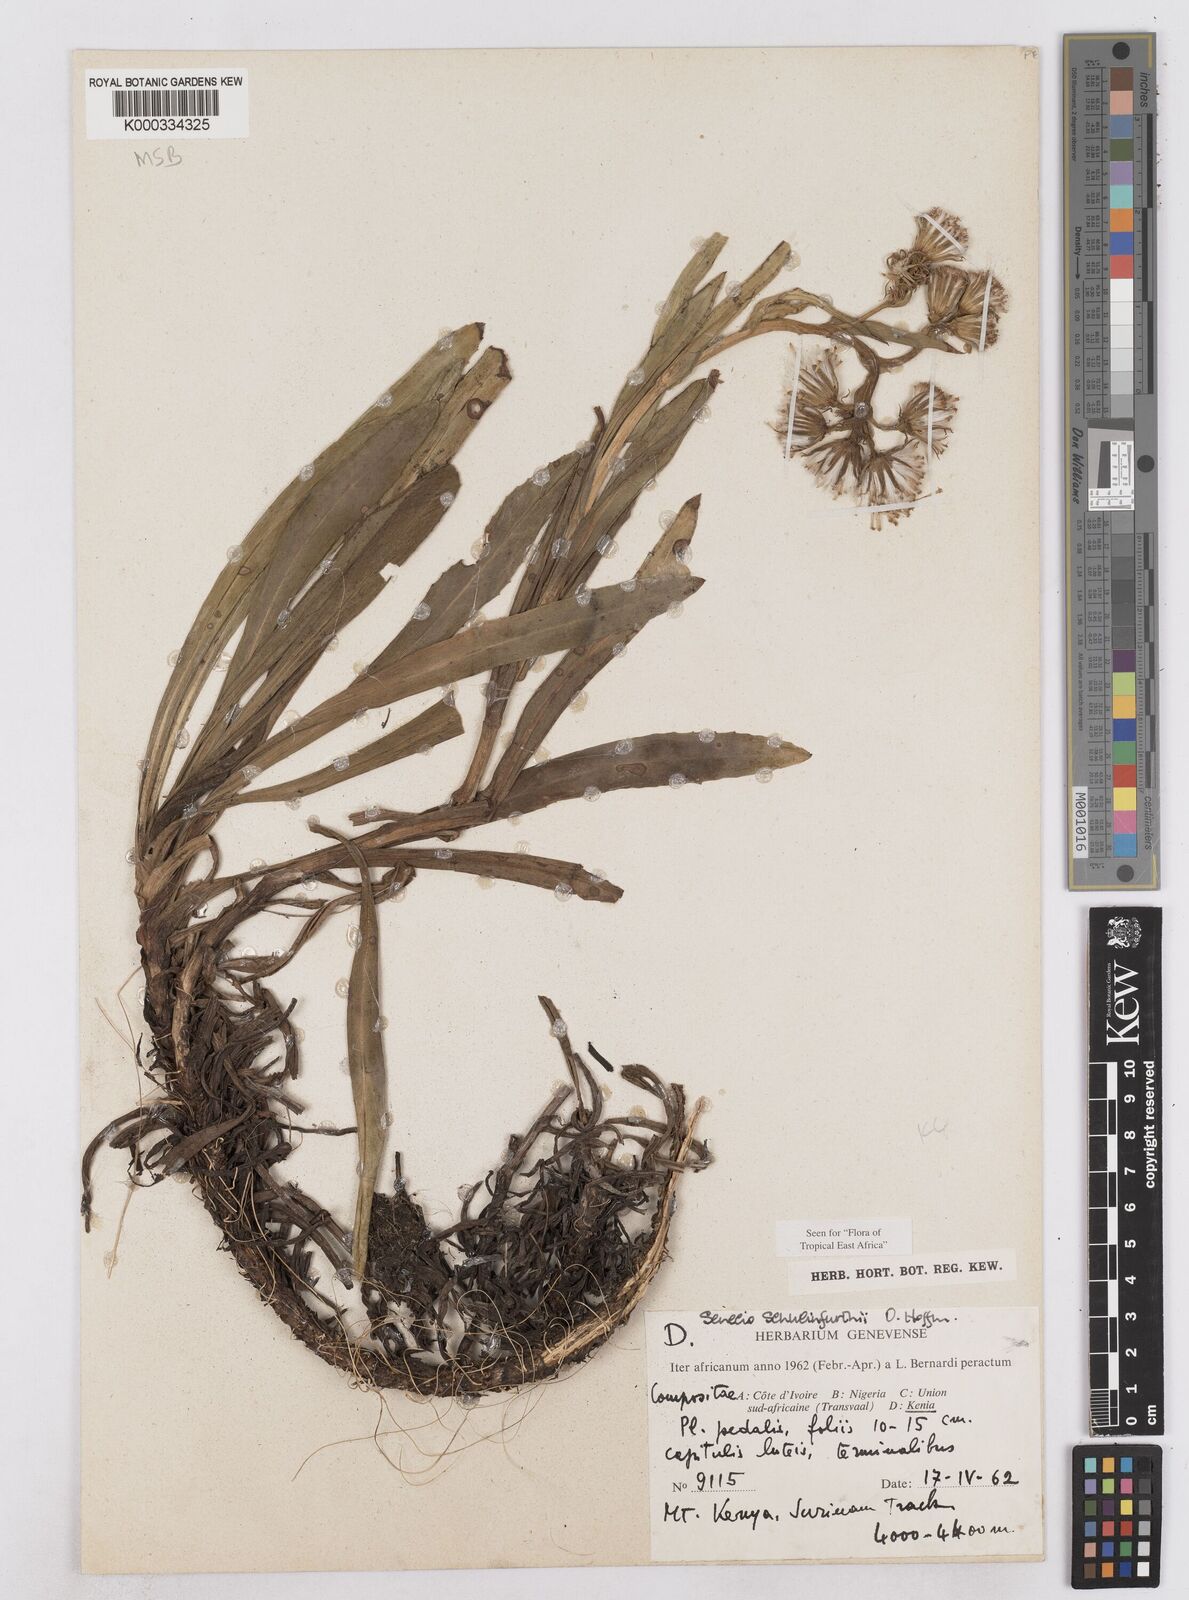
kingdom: Plantae
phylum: Tracheophyta
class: Magnoliopsida
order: Asterales
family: Asteraceae
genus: Senecio
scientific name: Senecio schweinfurthii
